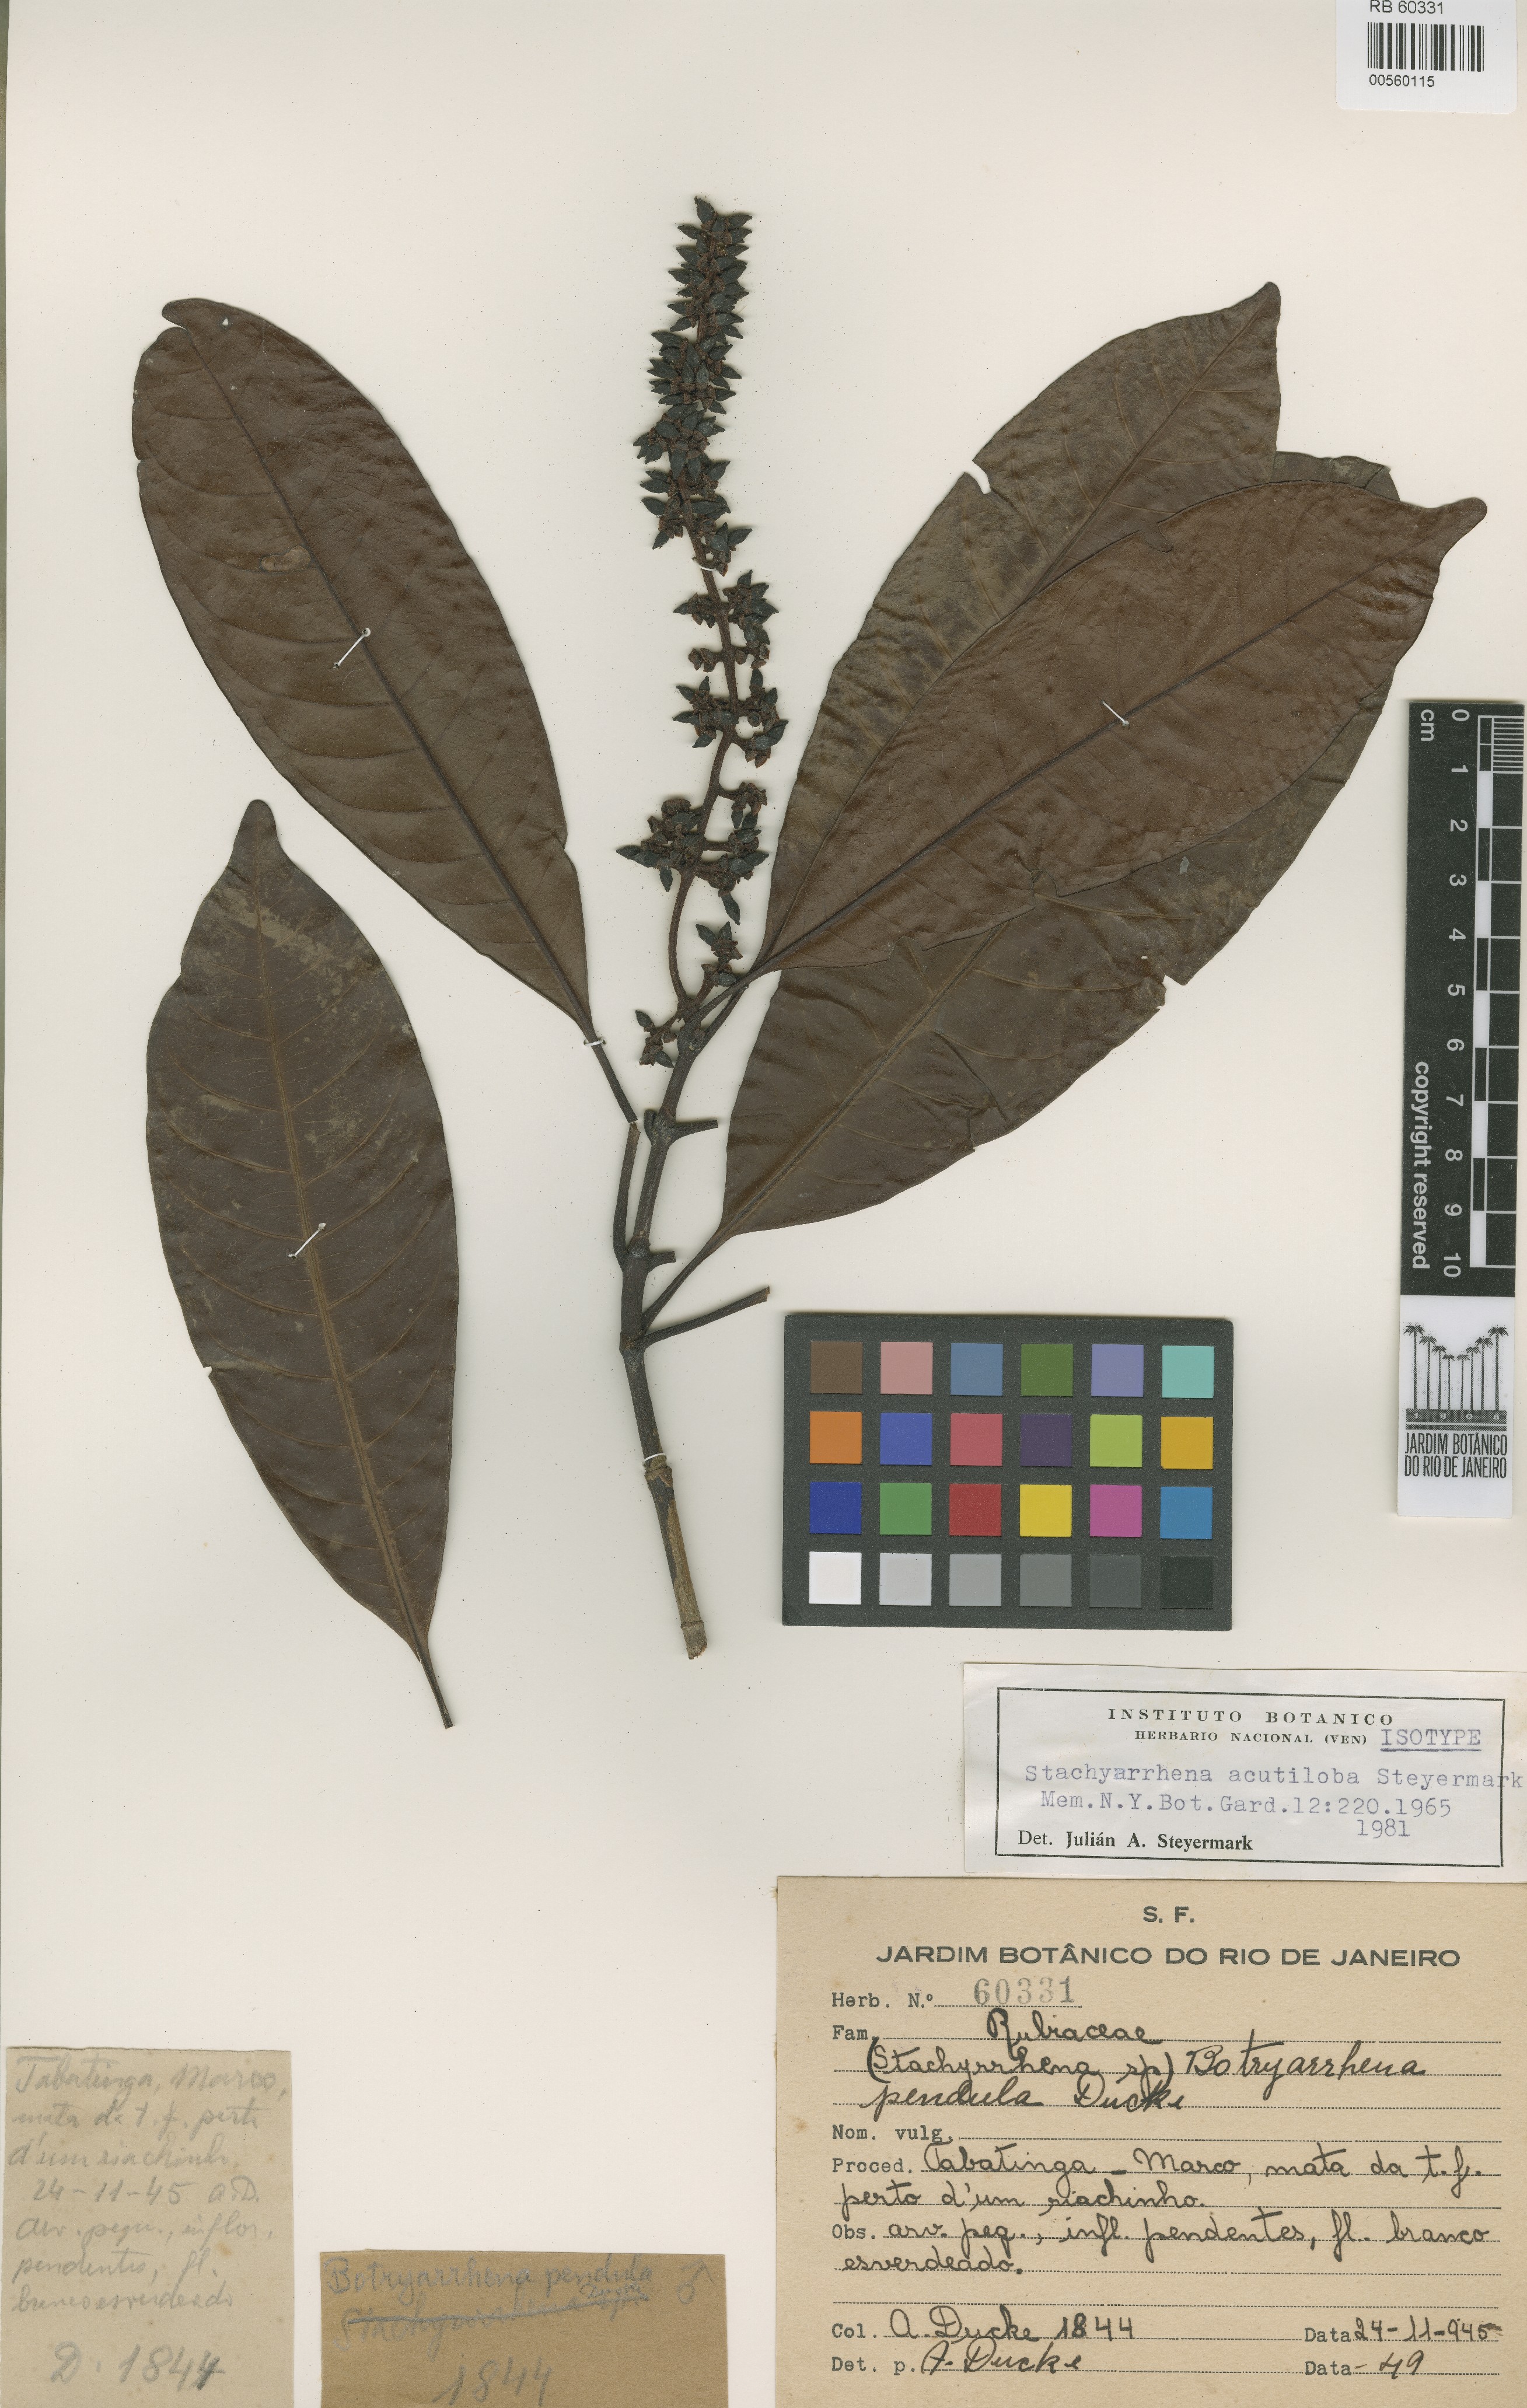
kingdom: Plantae
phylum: Tracheophyta
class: Magnoliopsida
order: Gentianales
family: Rubiaceae
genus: Stachyarrhena
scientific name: Stachyarrhena acutiloba
